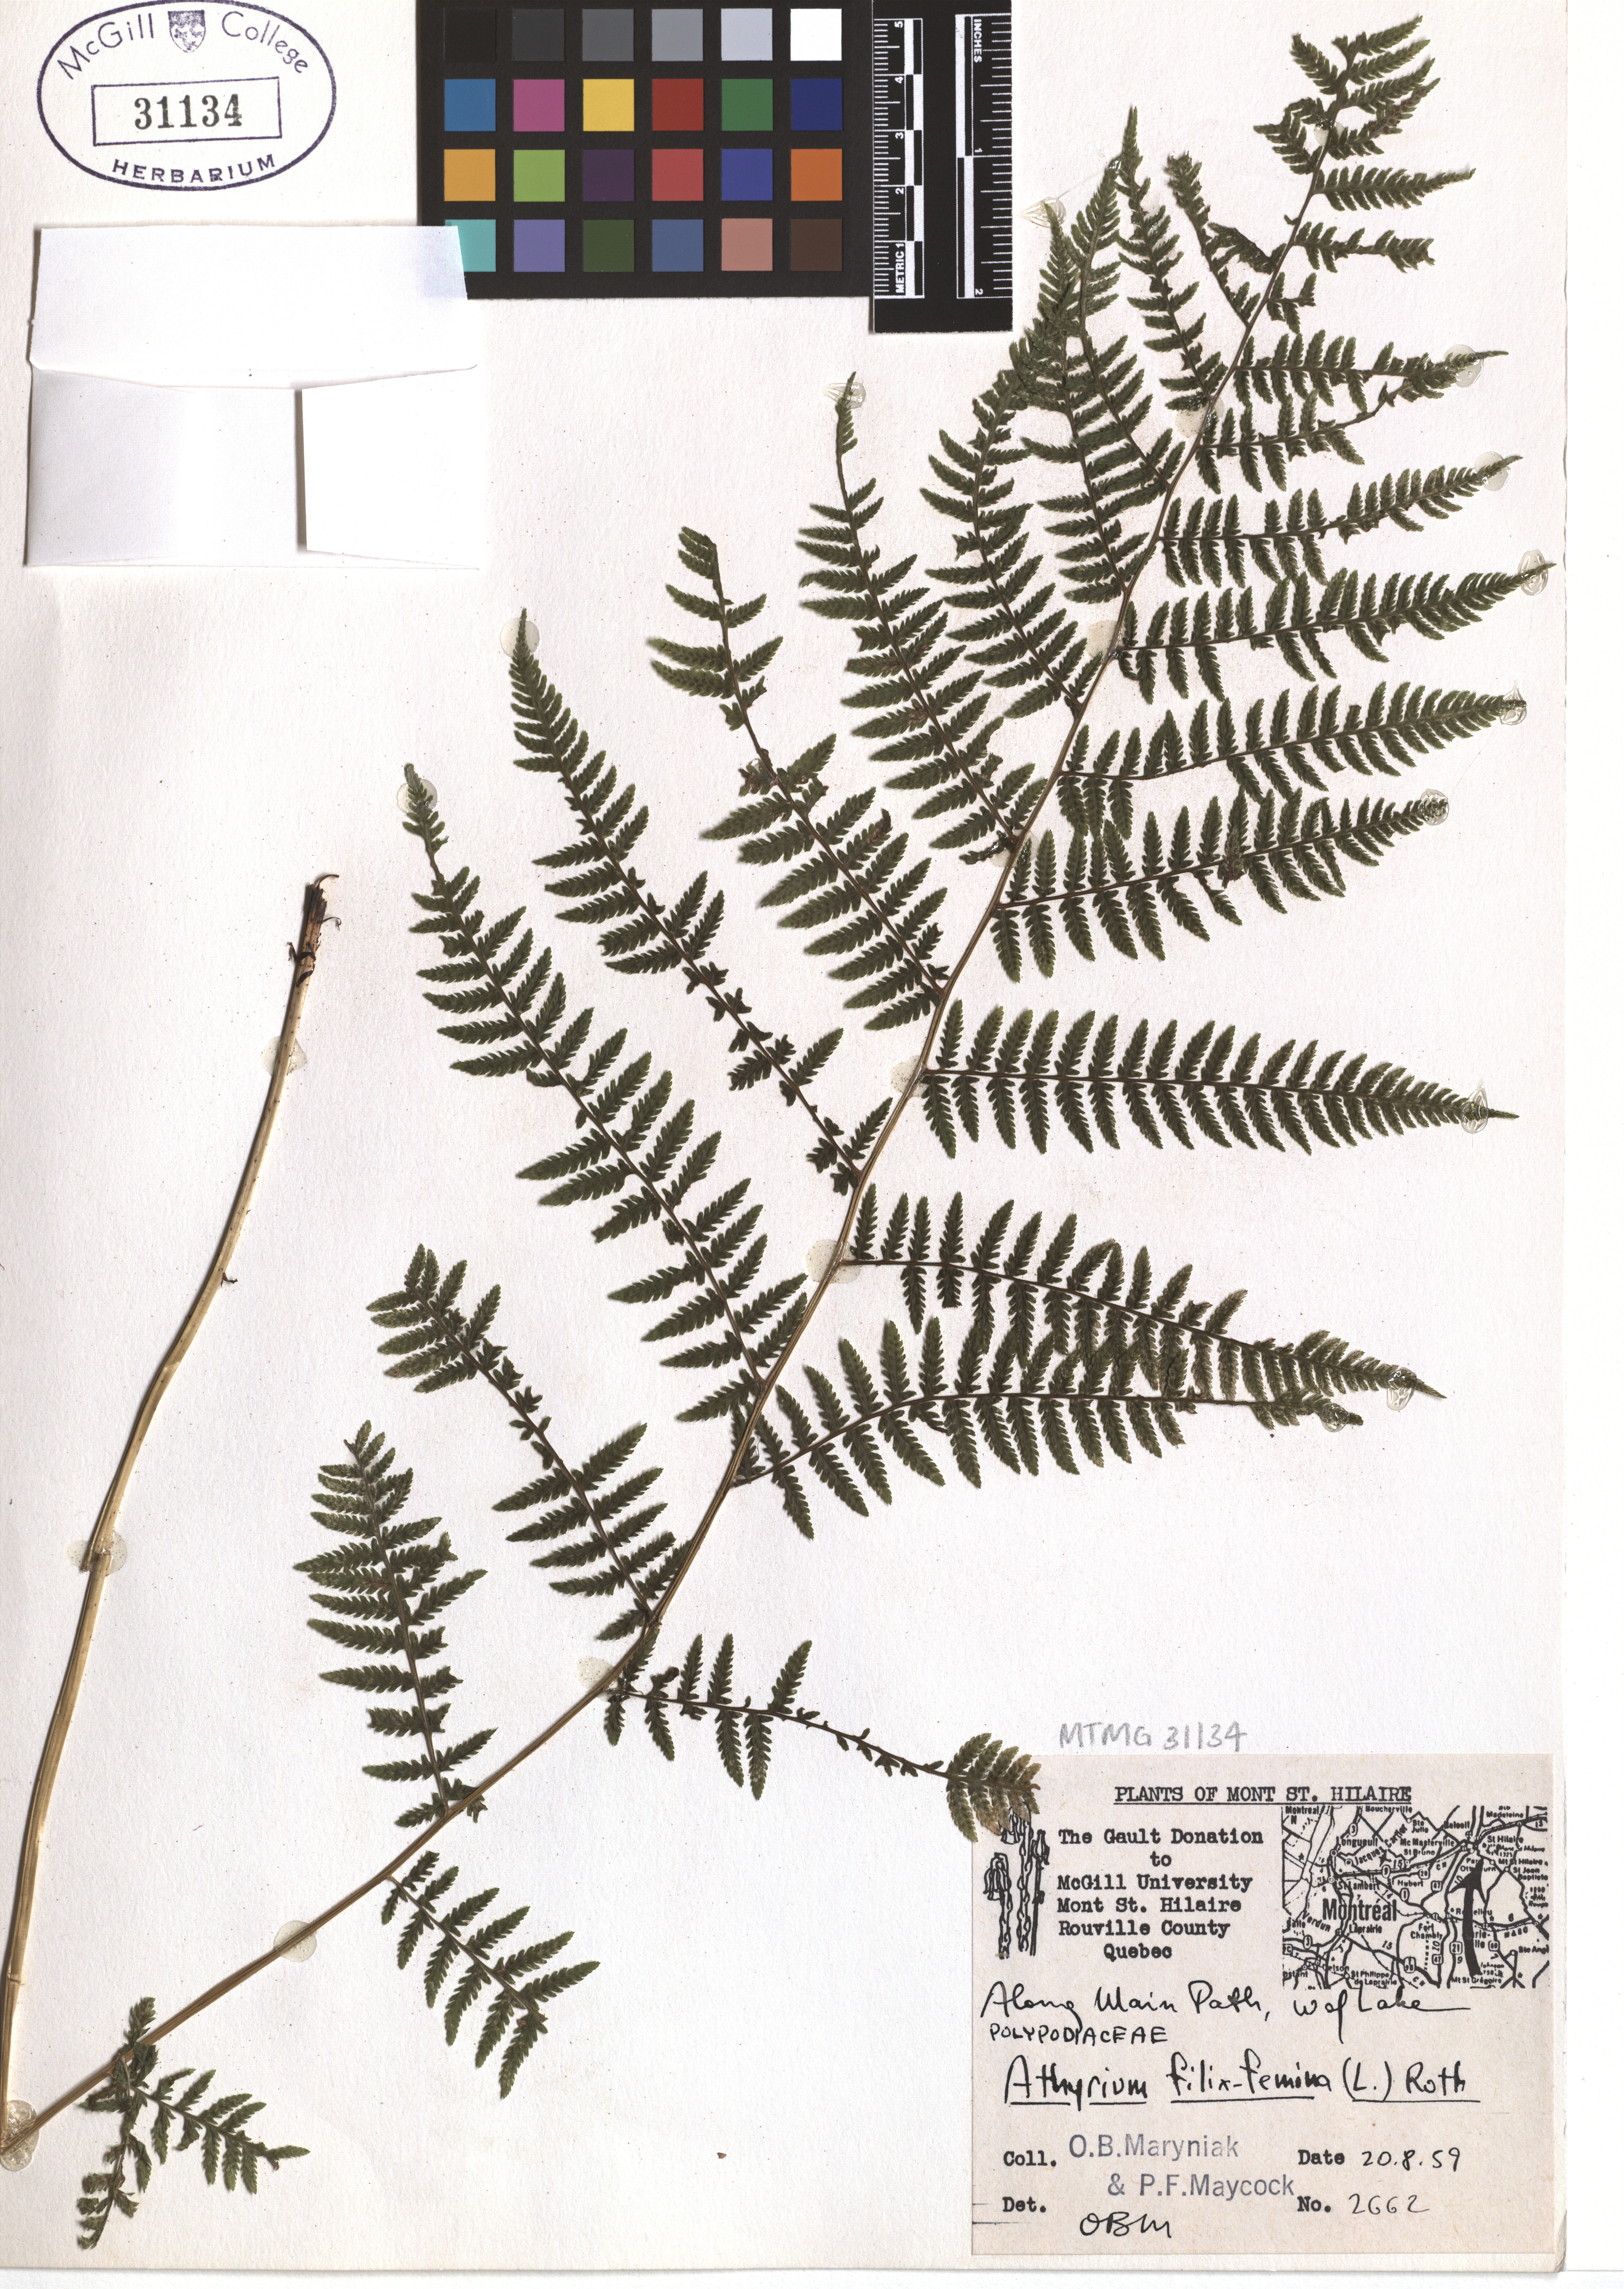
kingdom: Plantae
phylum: Tracheophyta
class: Polypodiopsida
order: Polypodiales
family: Athyriaceae
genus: Athyrium
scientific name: Athyrium filix-femina
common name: Lady fern
